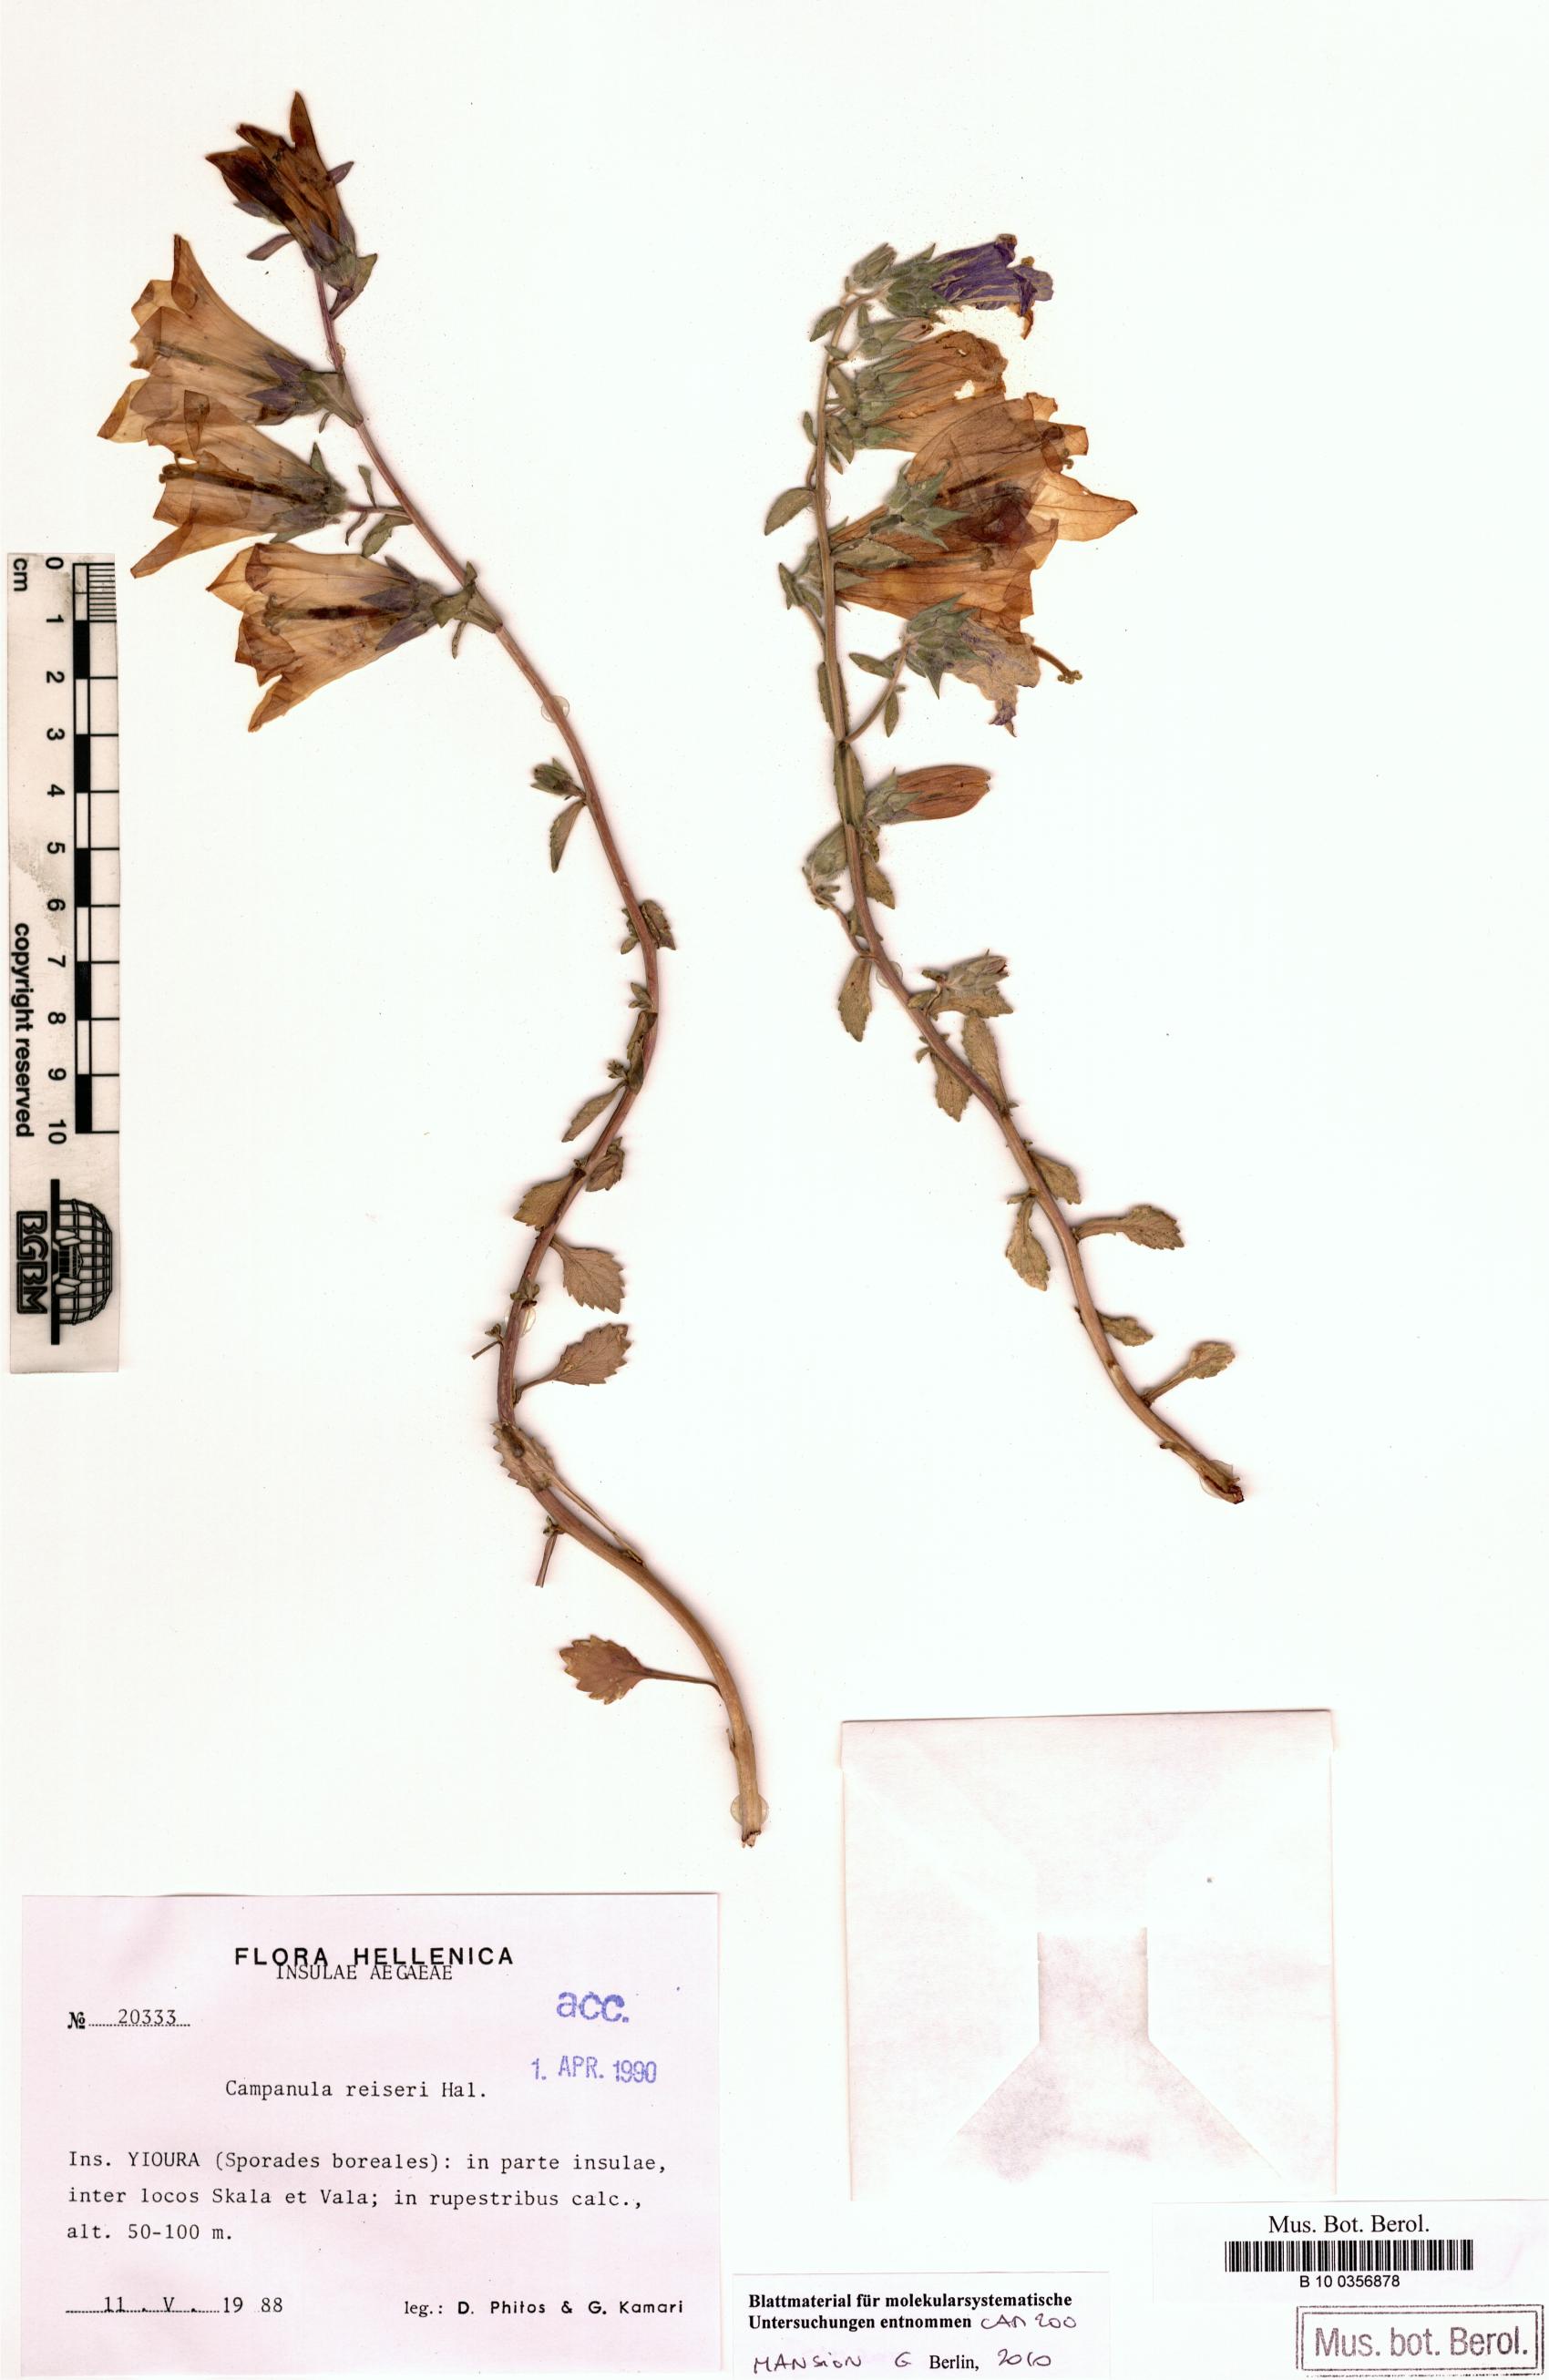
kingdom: Plantae
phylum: Tracheophyta
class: Magnoliopsida
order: Asterales
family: Campanulaceae
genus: Campanula
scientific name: Campanula reiseri
